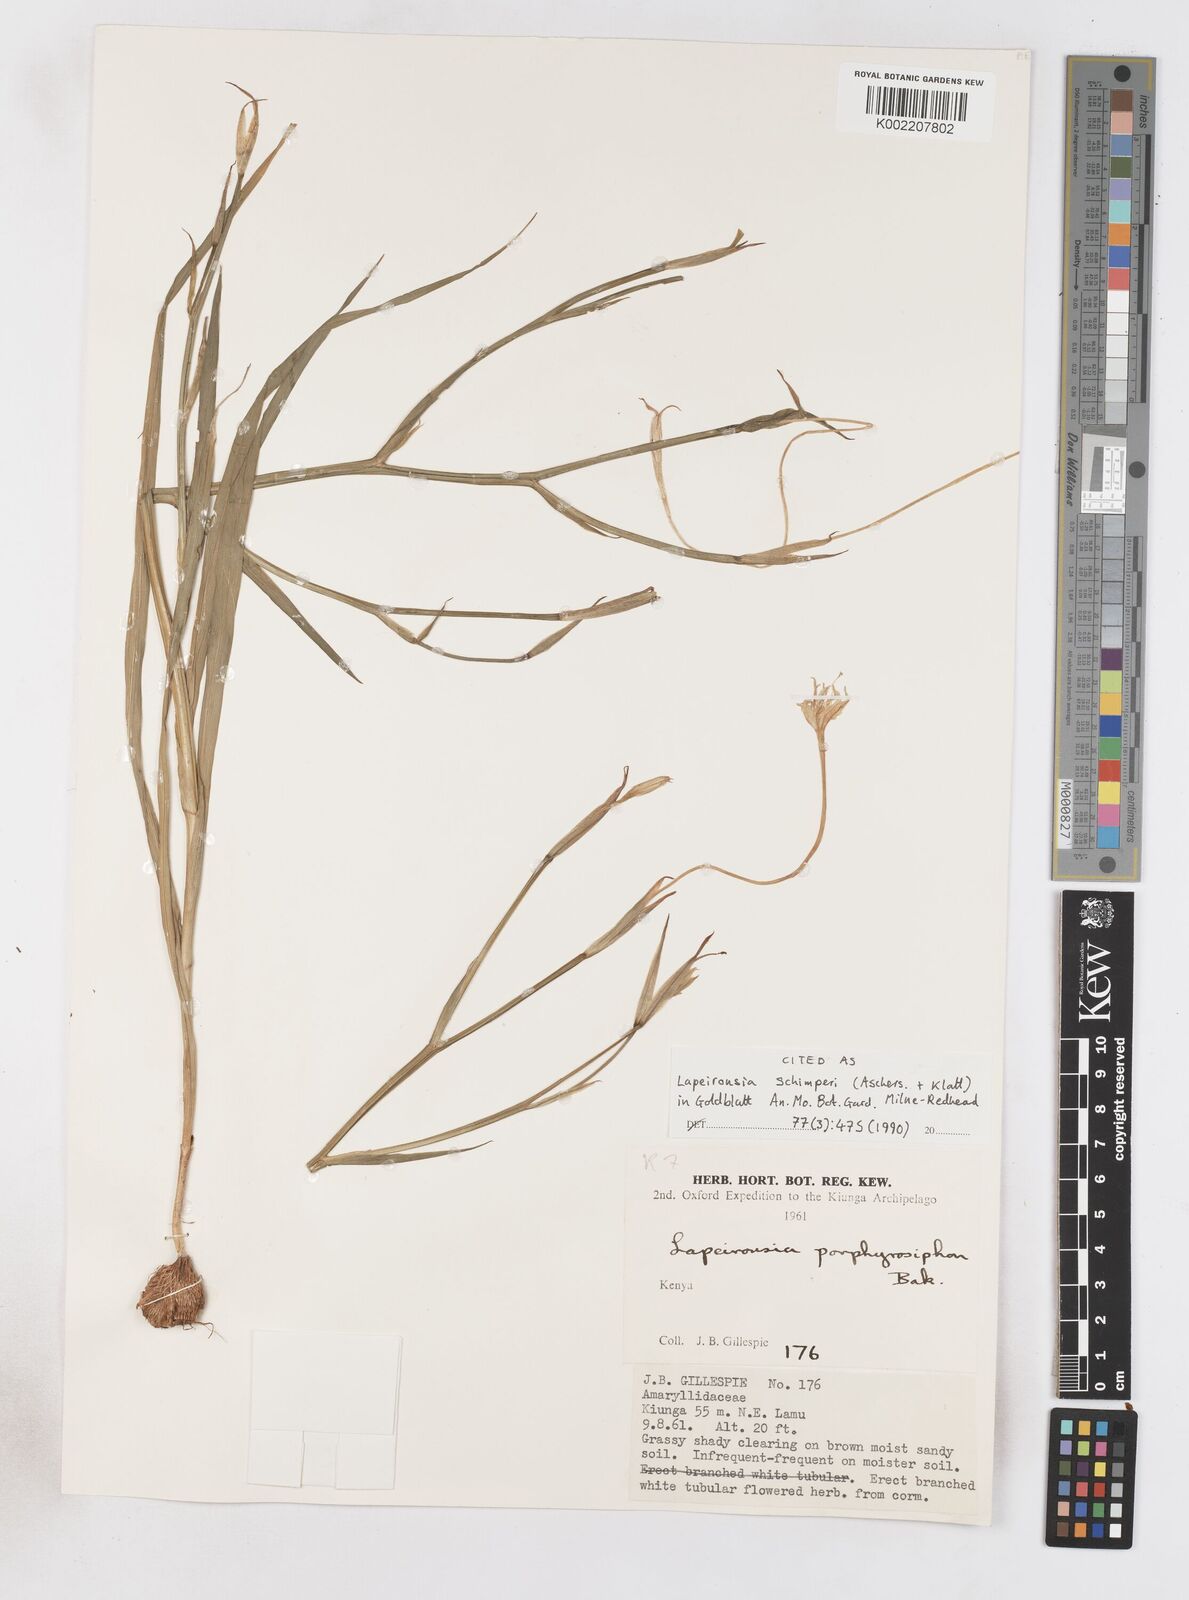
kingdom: Plantae
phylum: Tracheophyta
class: Liliopsida
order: Asparagales
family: Iridaceae
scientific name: Iridaceae
